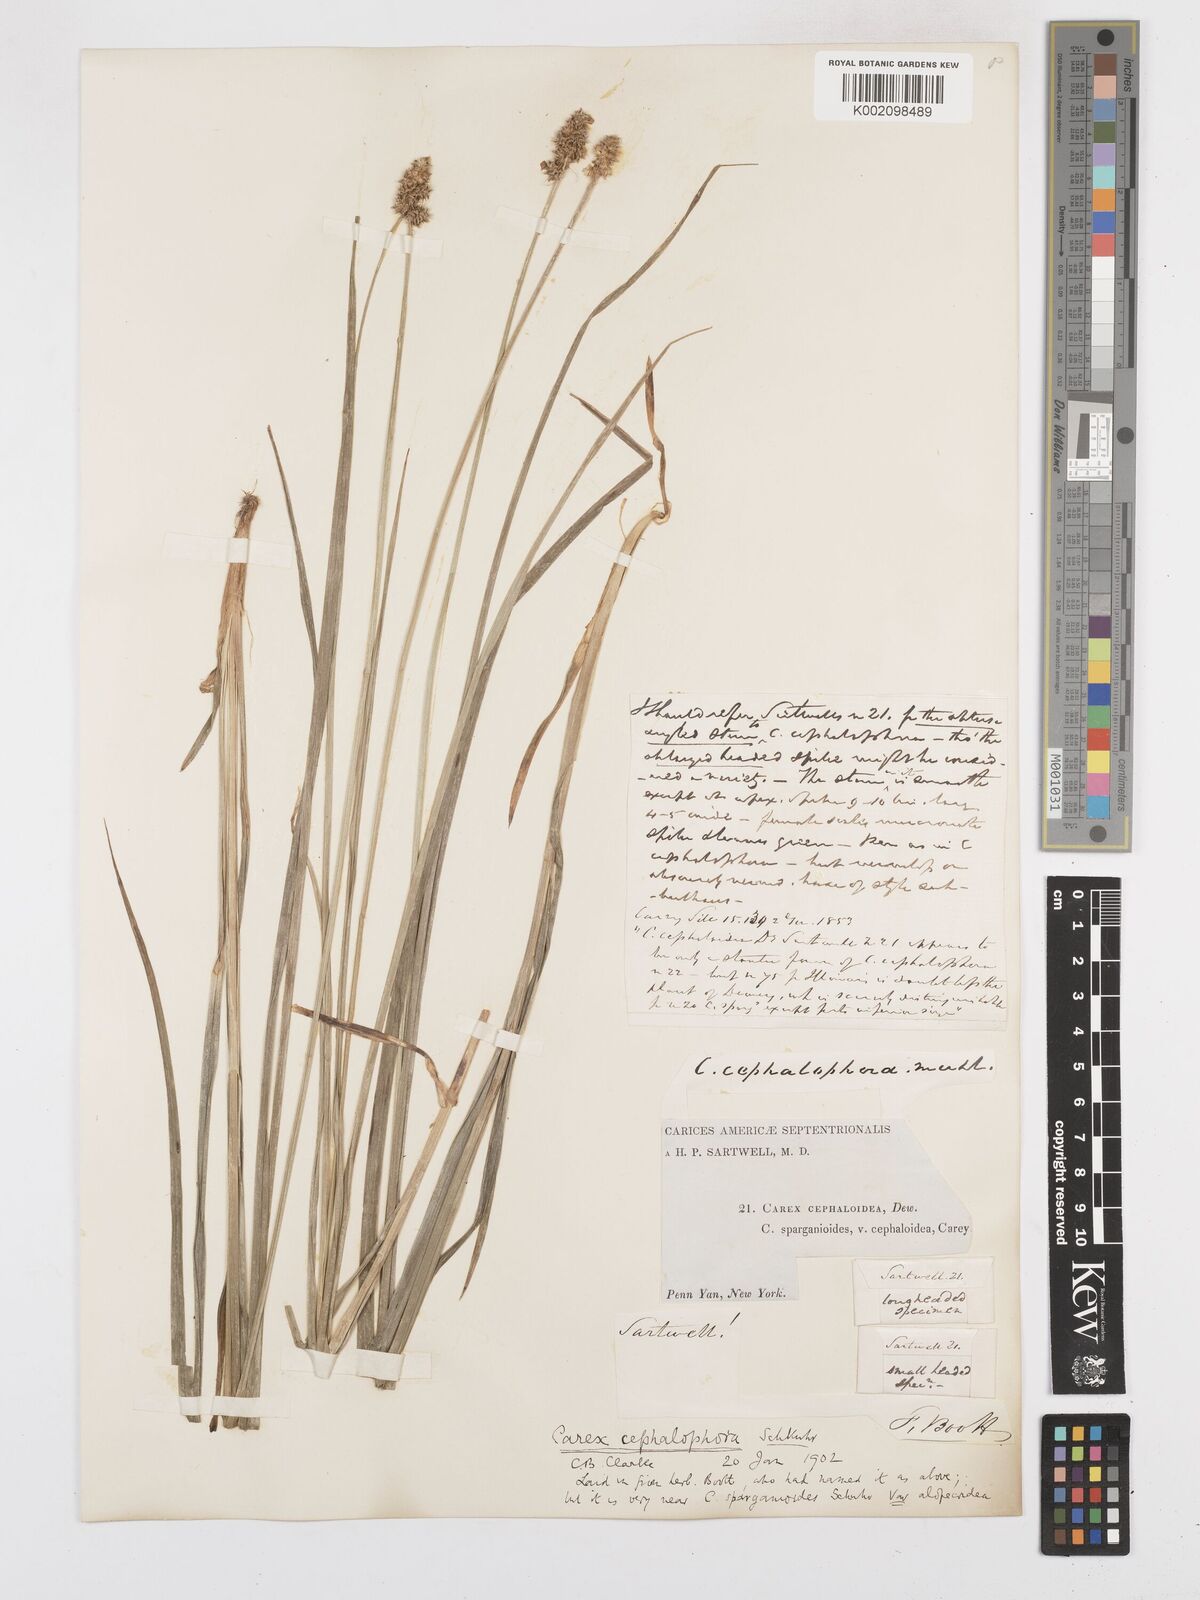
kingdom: Plantae
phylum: Tracheophyta
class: Liliopsida
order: Poales
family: Cyperaceae
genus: Carex
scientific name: Carex cephalophora
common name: Oval-headed sedge
